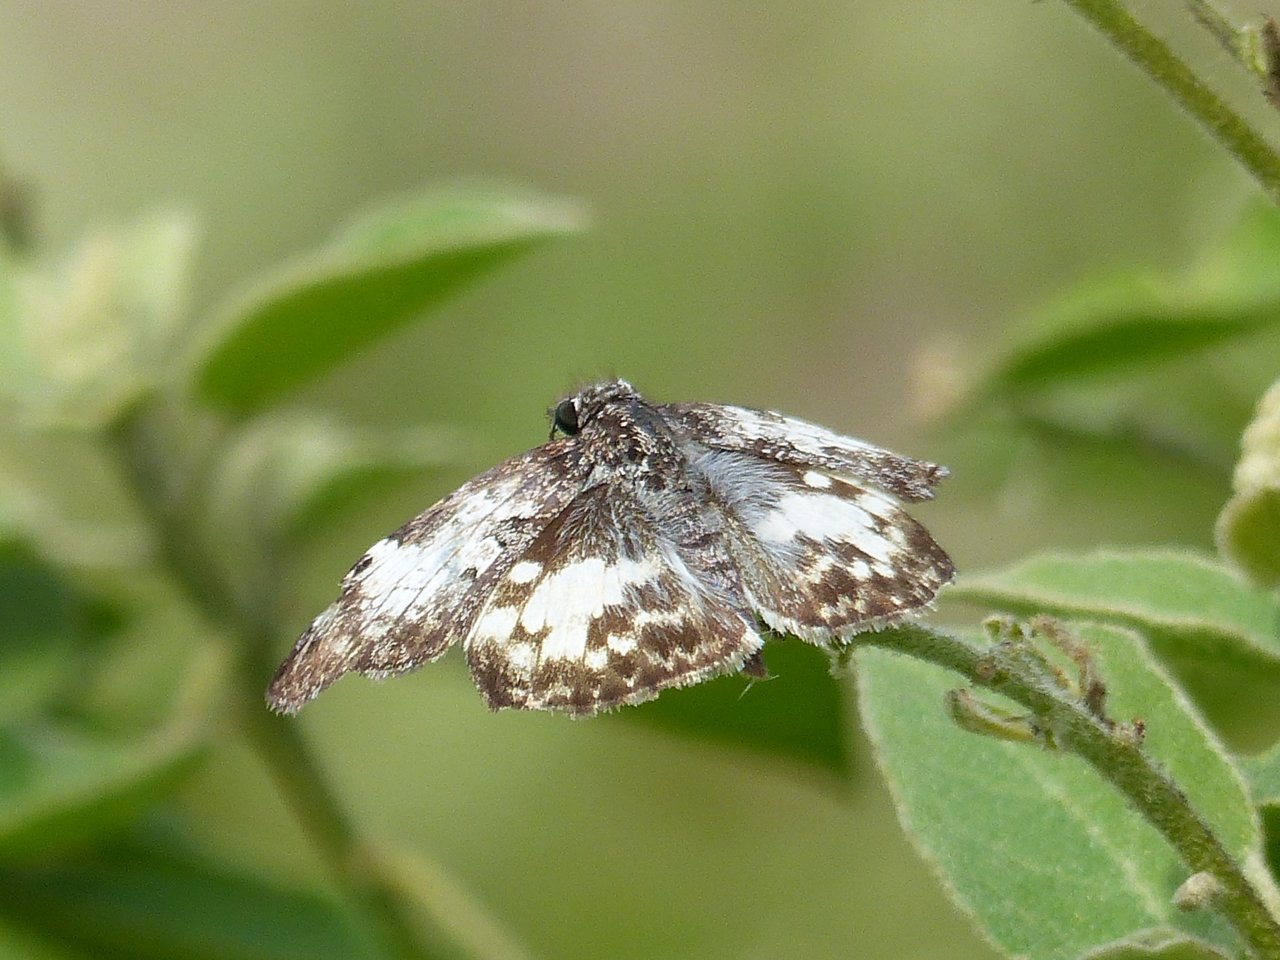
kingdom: Animalia
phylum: Arthropoda
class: Insecta
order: Lepidoptera
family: Hesperiidae
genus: Chiomara
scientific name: Chiomara asychis
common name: White-patched Skipper
